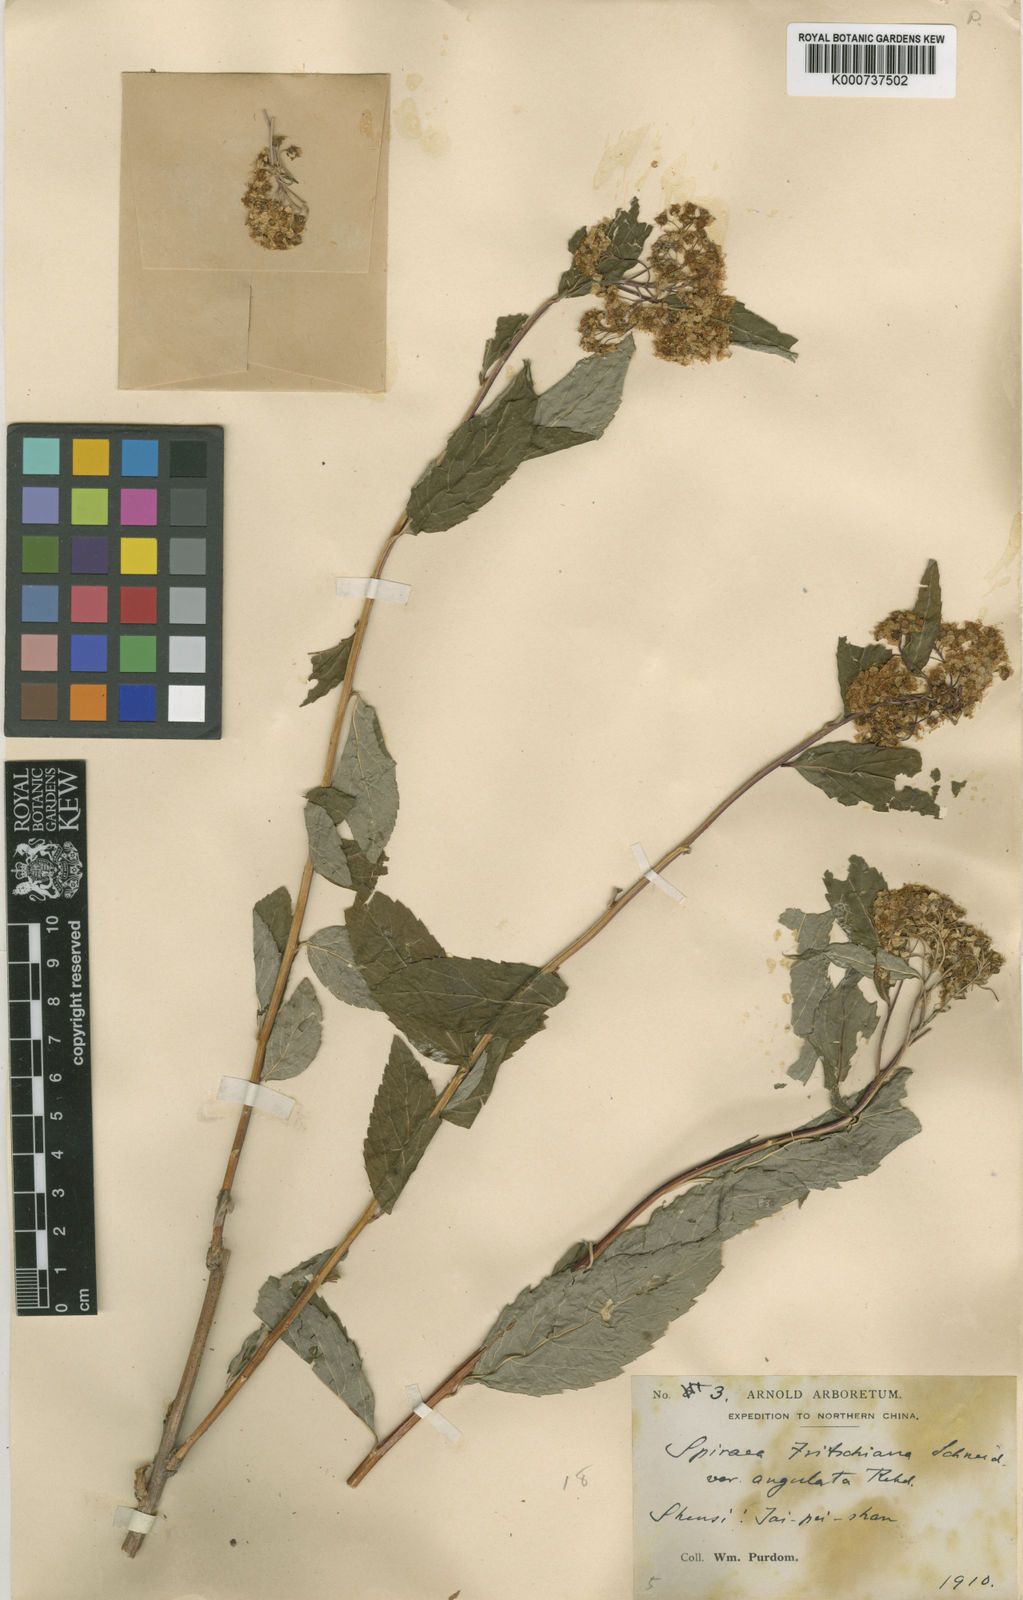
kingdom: Plantae
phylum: Tracheophyta
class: Magnoliopsida
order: Rosales
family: Rosaceae
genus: Spiraea
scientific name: Spiraea fritschiana
